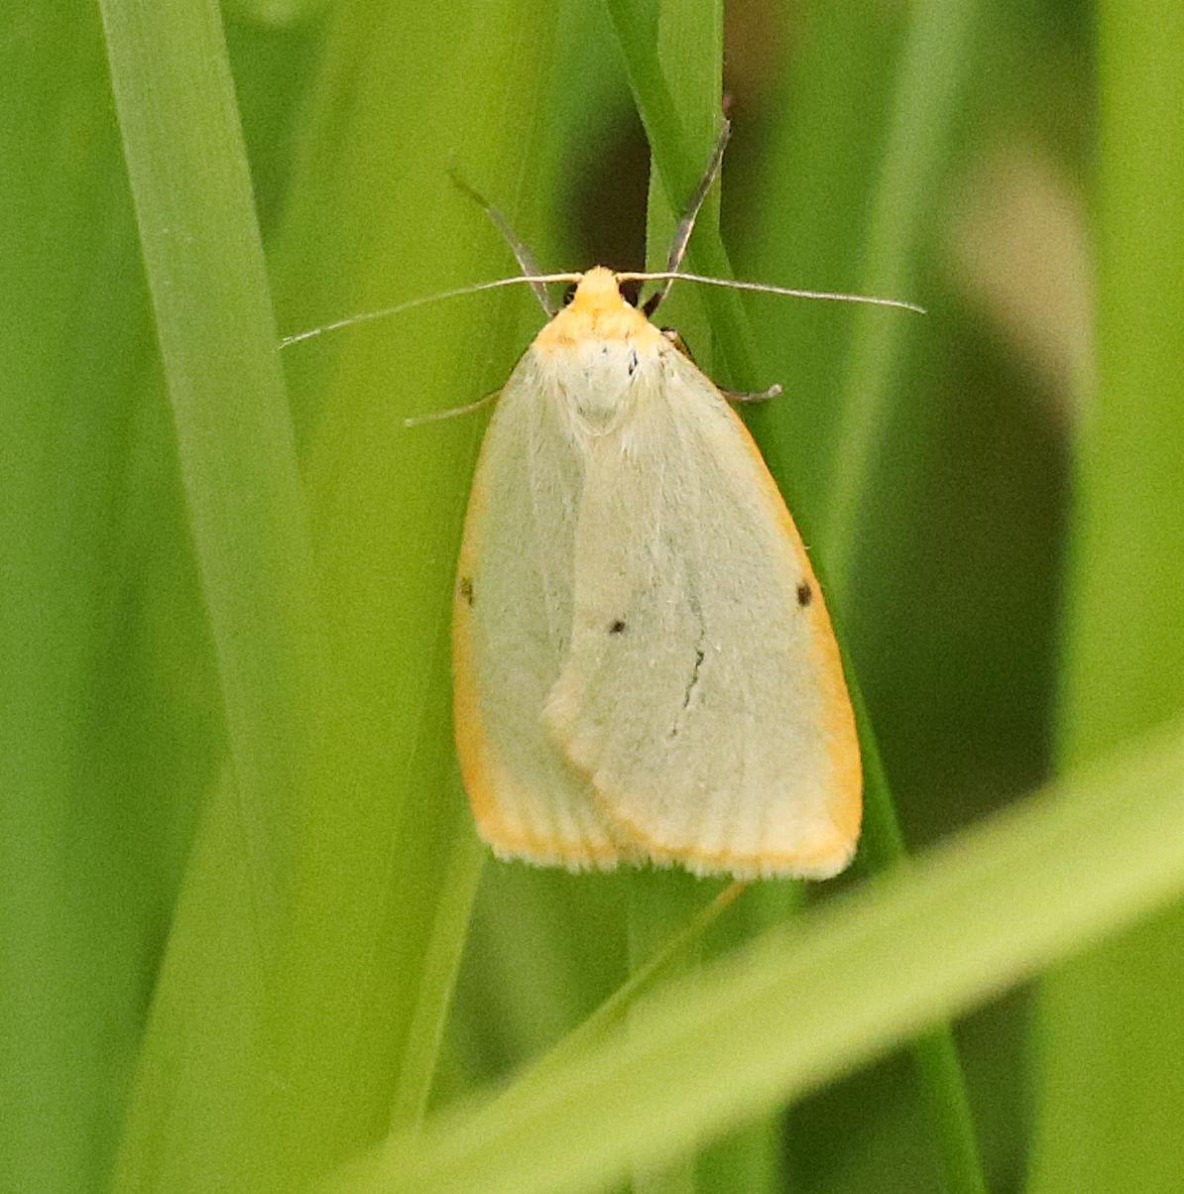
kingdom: Animalia
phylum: Arthropoda
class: Insecta
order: Lepidoptera
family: Erebidae
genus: Cybosia
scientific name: Cybosia mesomella
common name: Dag-lavspinder
